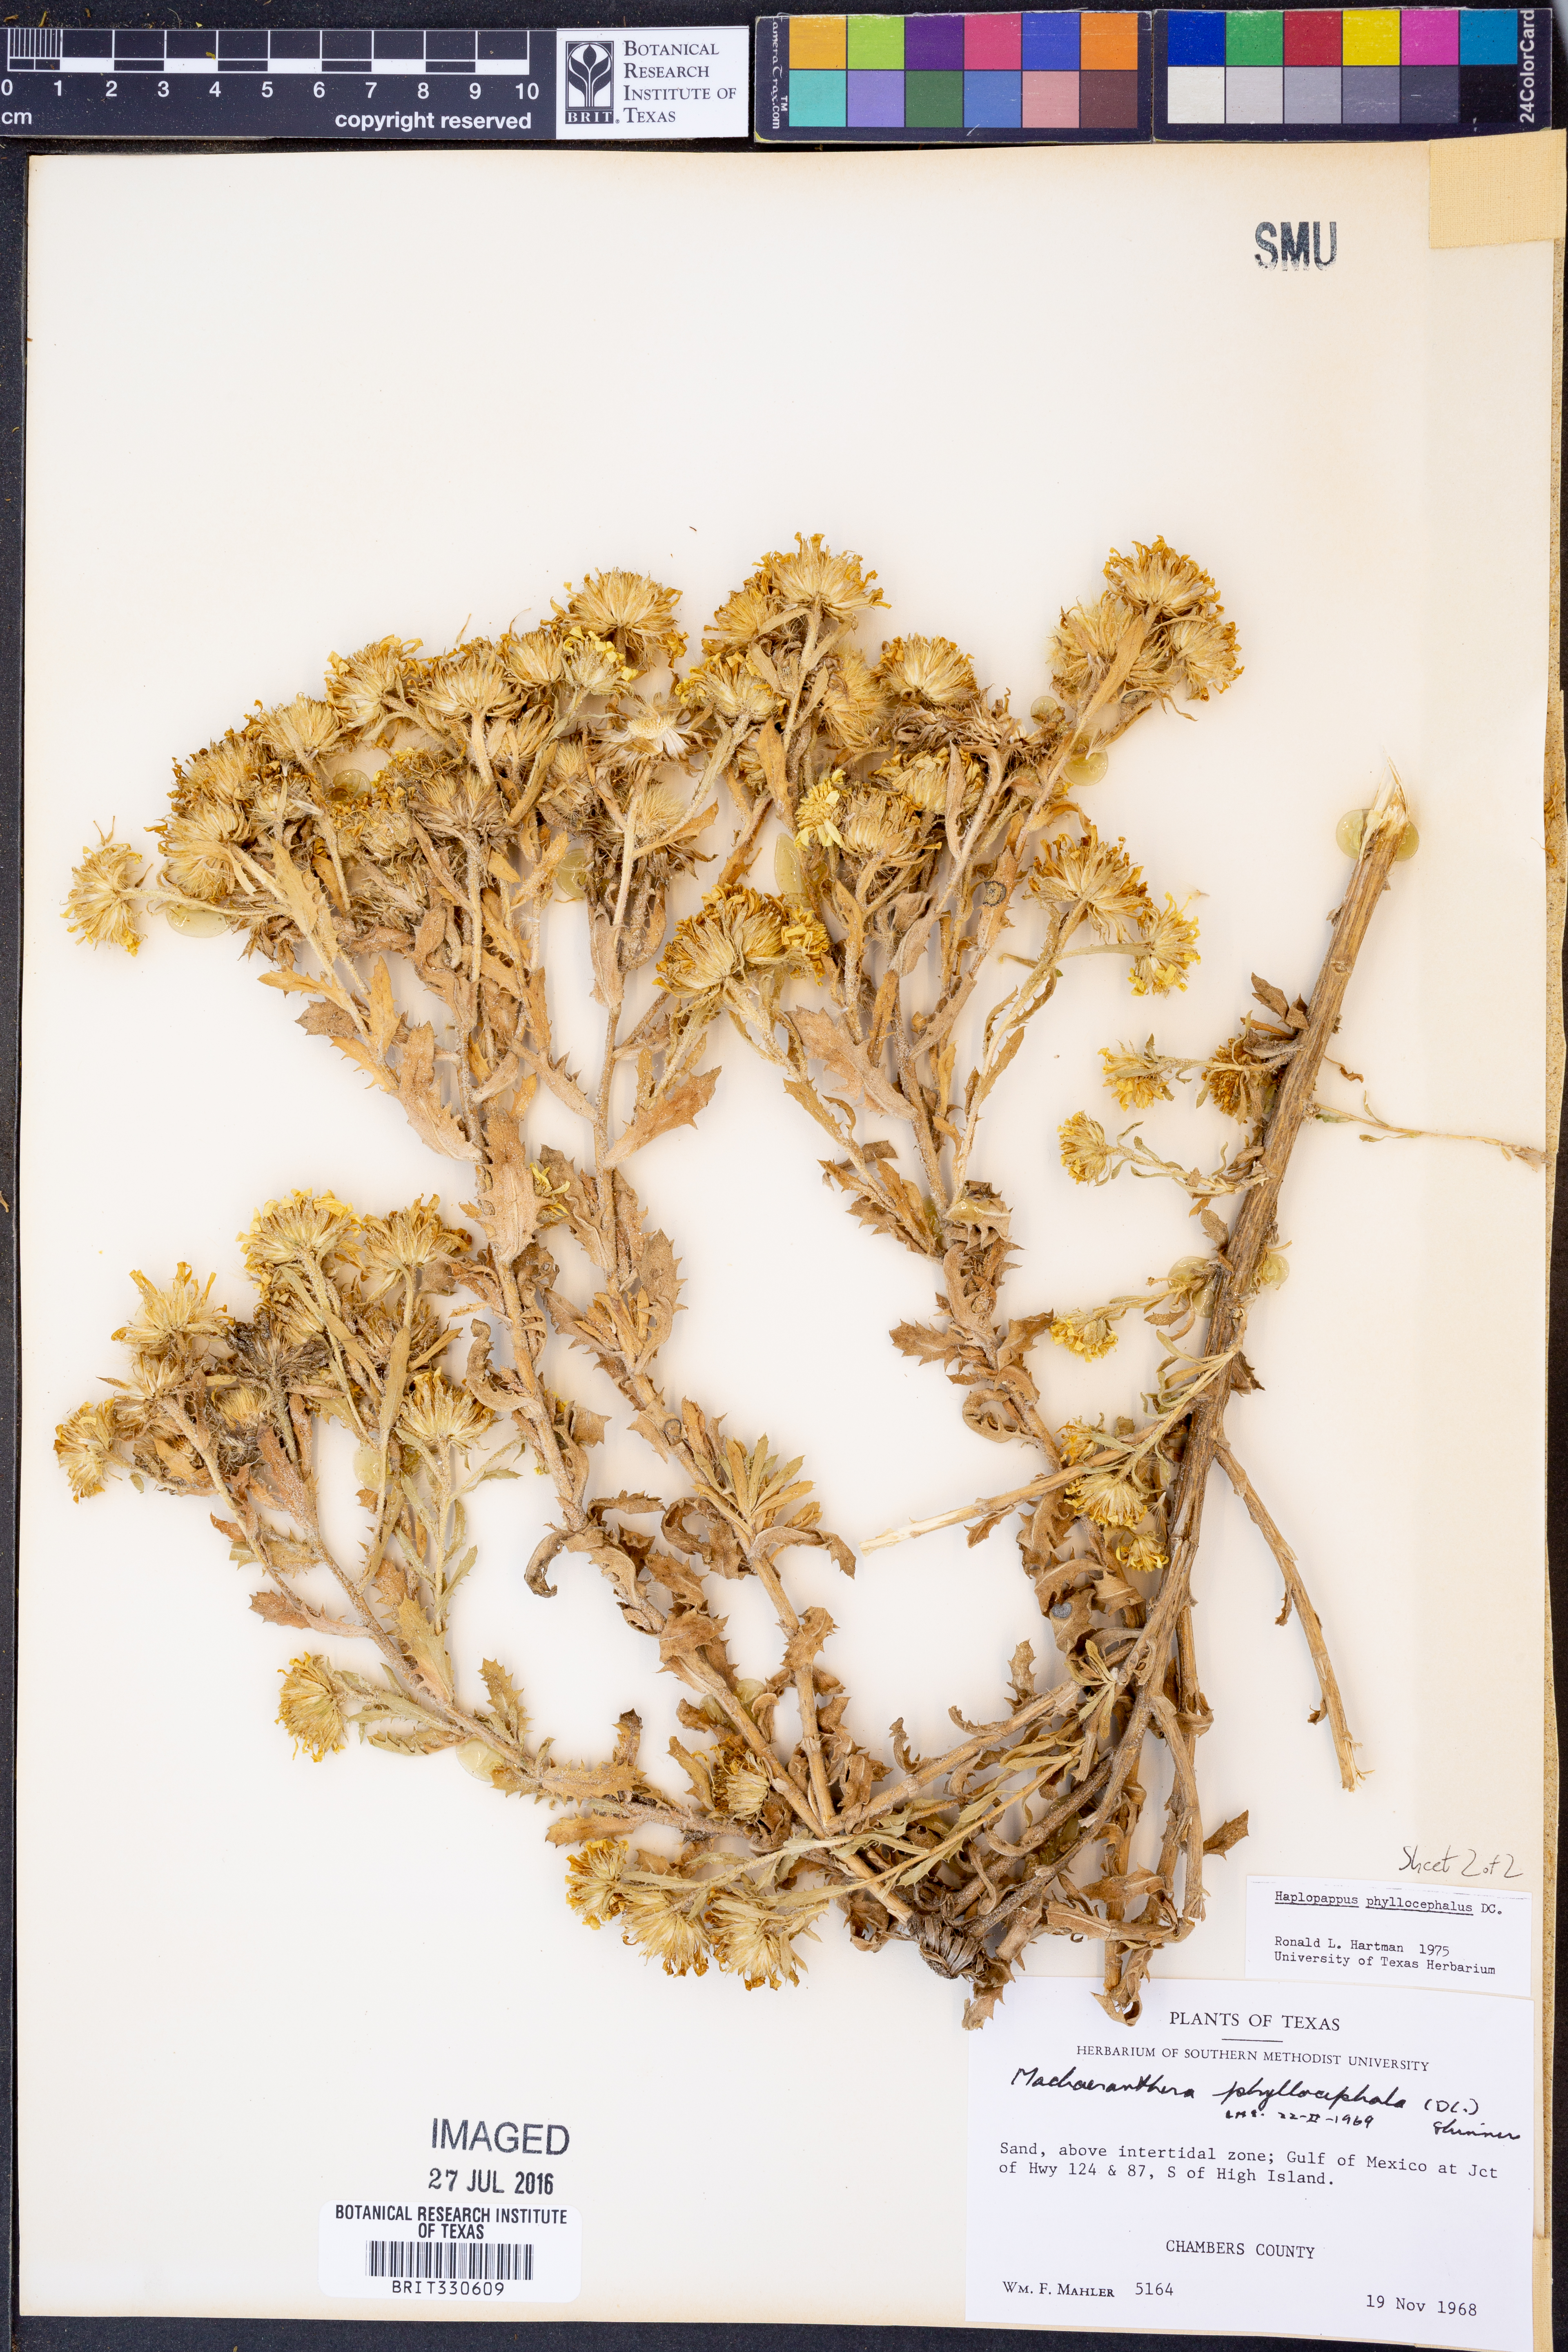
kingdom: Plantae
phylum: Tracheophyta
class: Magnoliopsida
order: Asterales
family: Asteraceae
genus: Rayjacksonia
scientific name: Rayjacksonia phyllocephala
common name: Gulf coast camphor daisy
